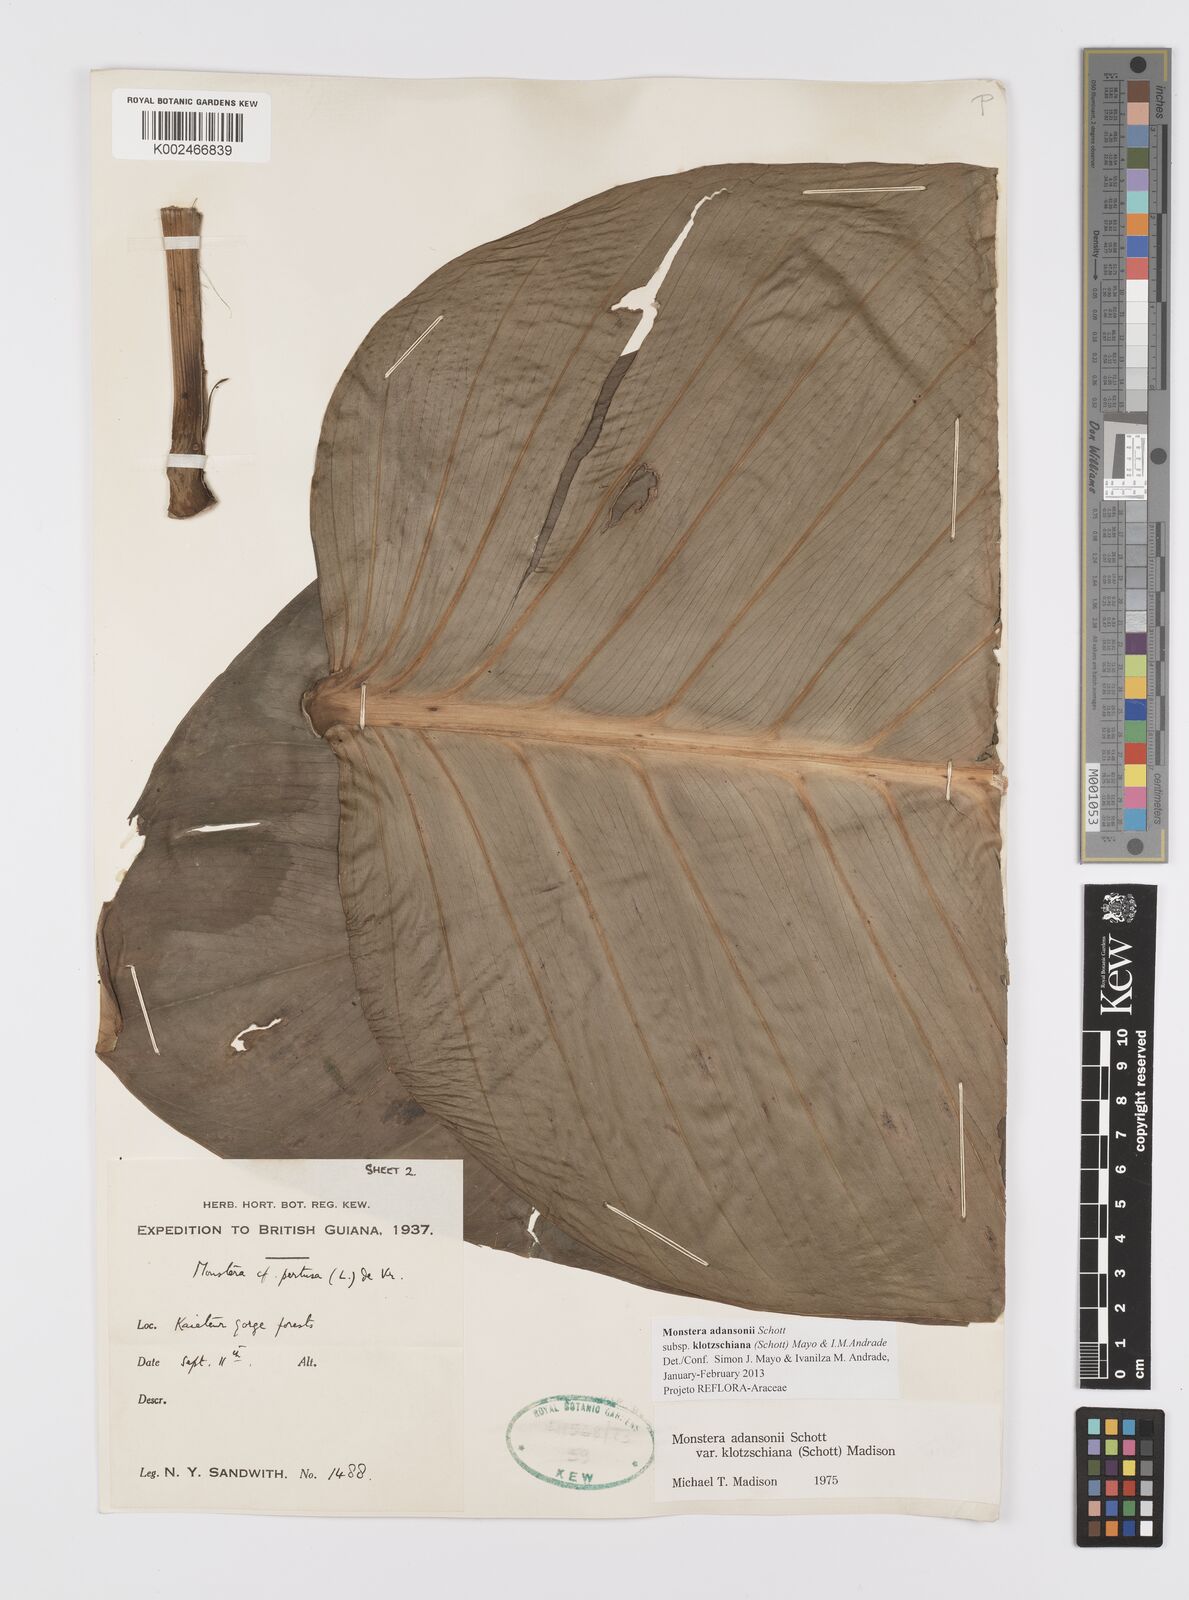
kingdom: Plantae
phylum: Tracheophyta
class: Liliopsida
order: Alismatales
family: Araceae
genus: Monstera
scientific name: Monstera adansonii
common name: Tarovine
